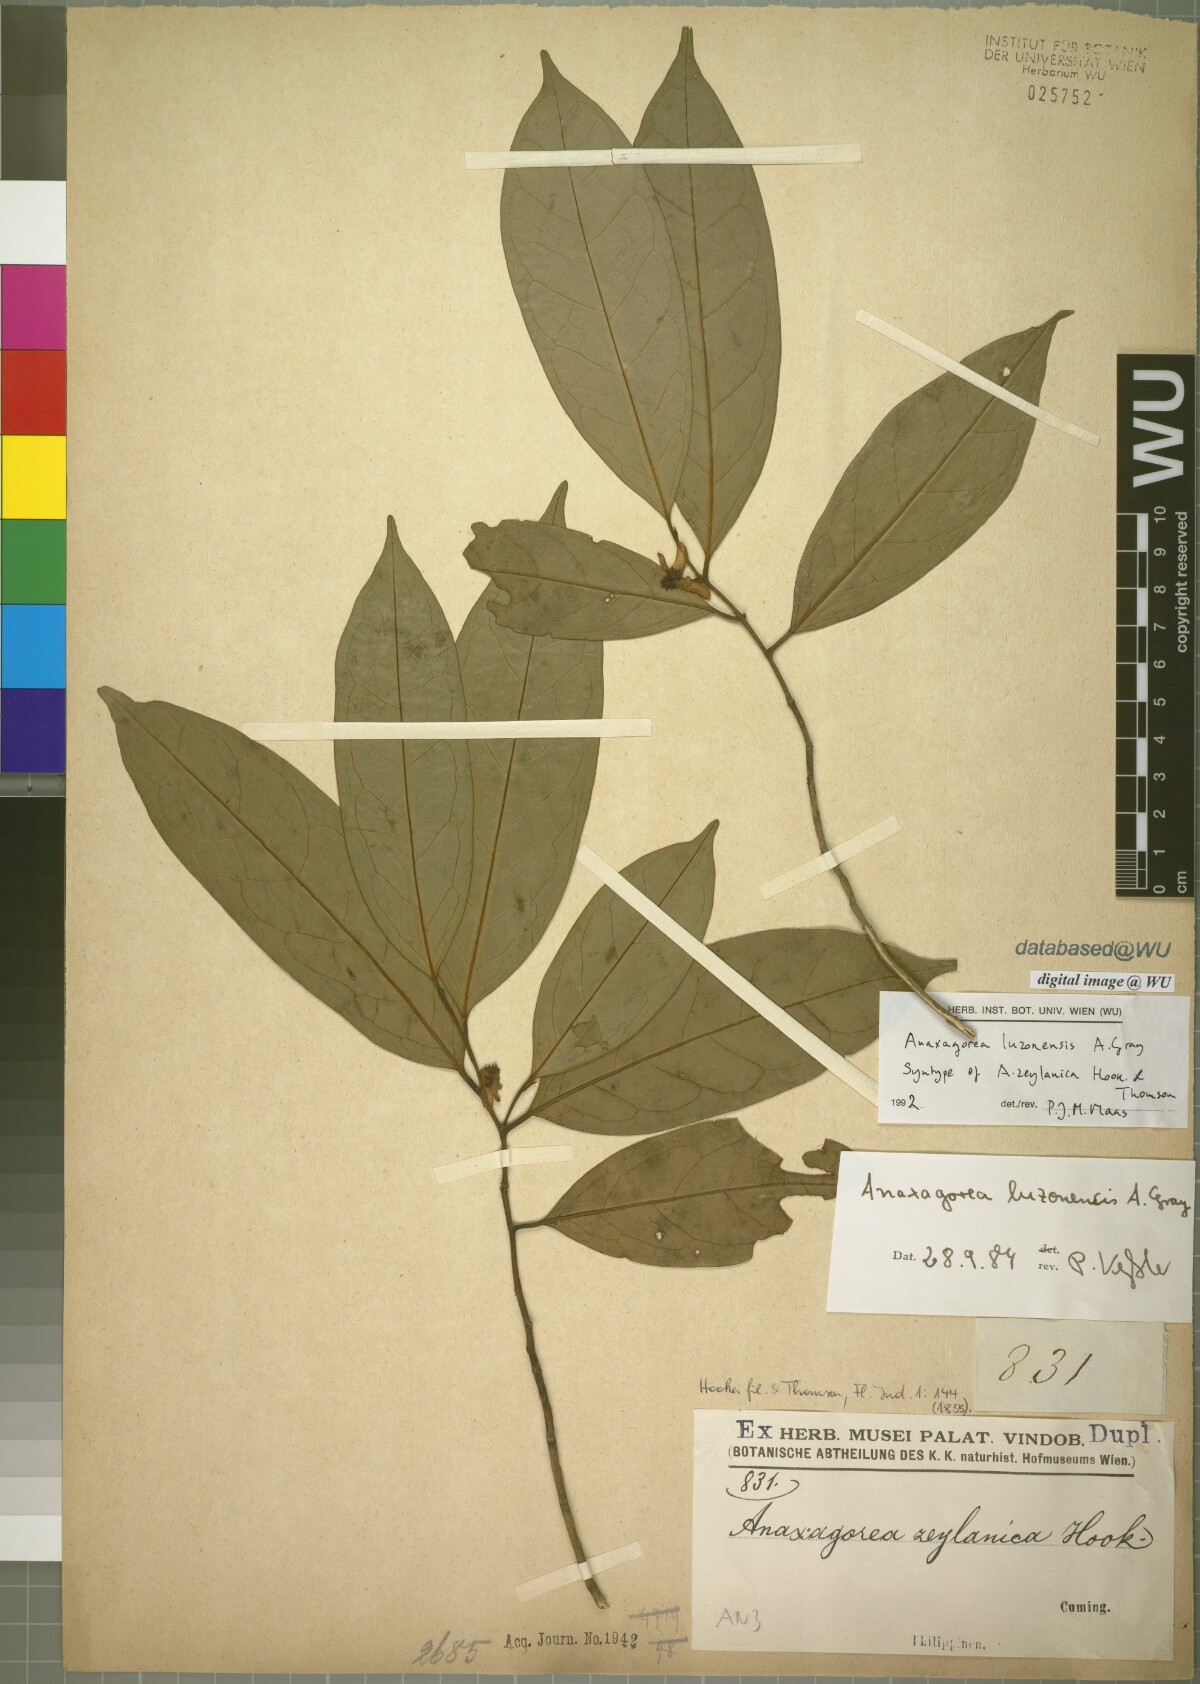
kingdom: Plantae
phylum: Tracheophyta
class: Magnoliopsida
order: Magnoliales
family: Annonaceae
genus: Anaxagorea
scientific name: Anaxagorea luzonensis
